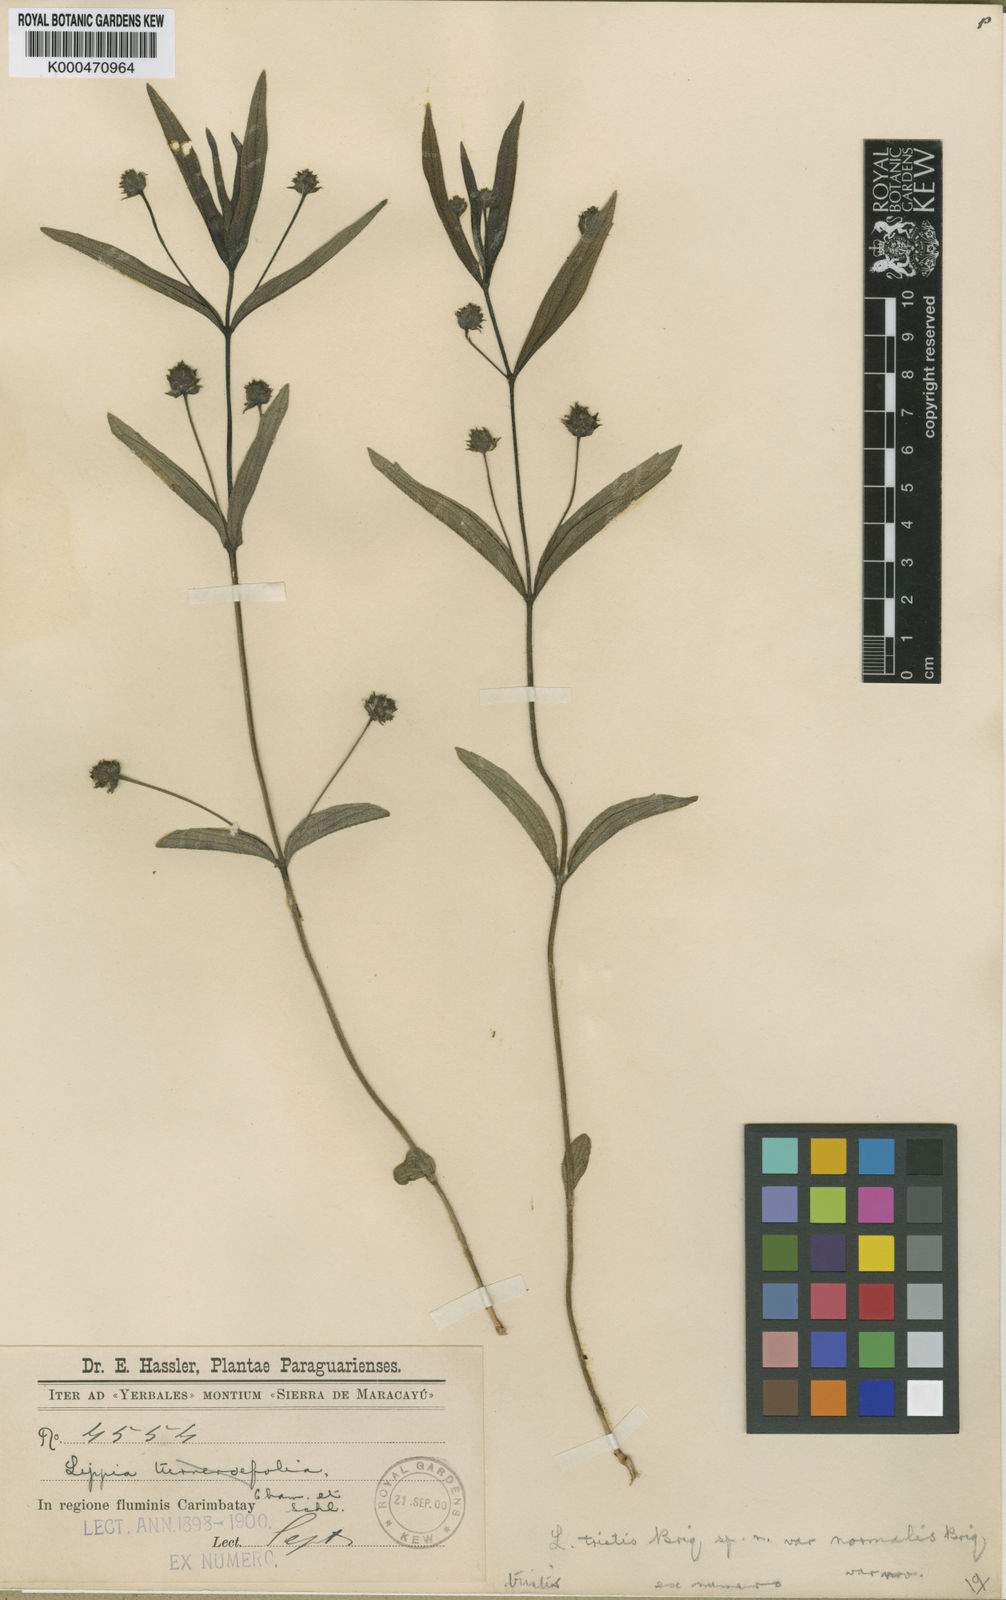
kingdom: Plantae
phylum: Tracheophyta
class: Magnoliopsida
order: Lamiales
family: Verbenaceae
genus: Lippia
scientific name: Lippia tristis
